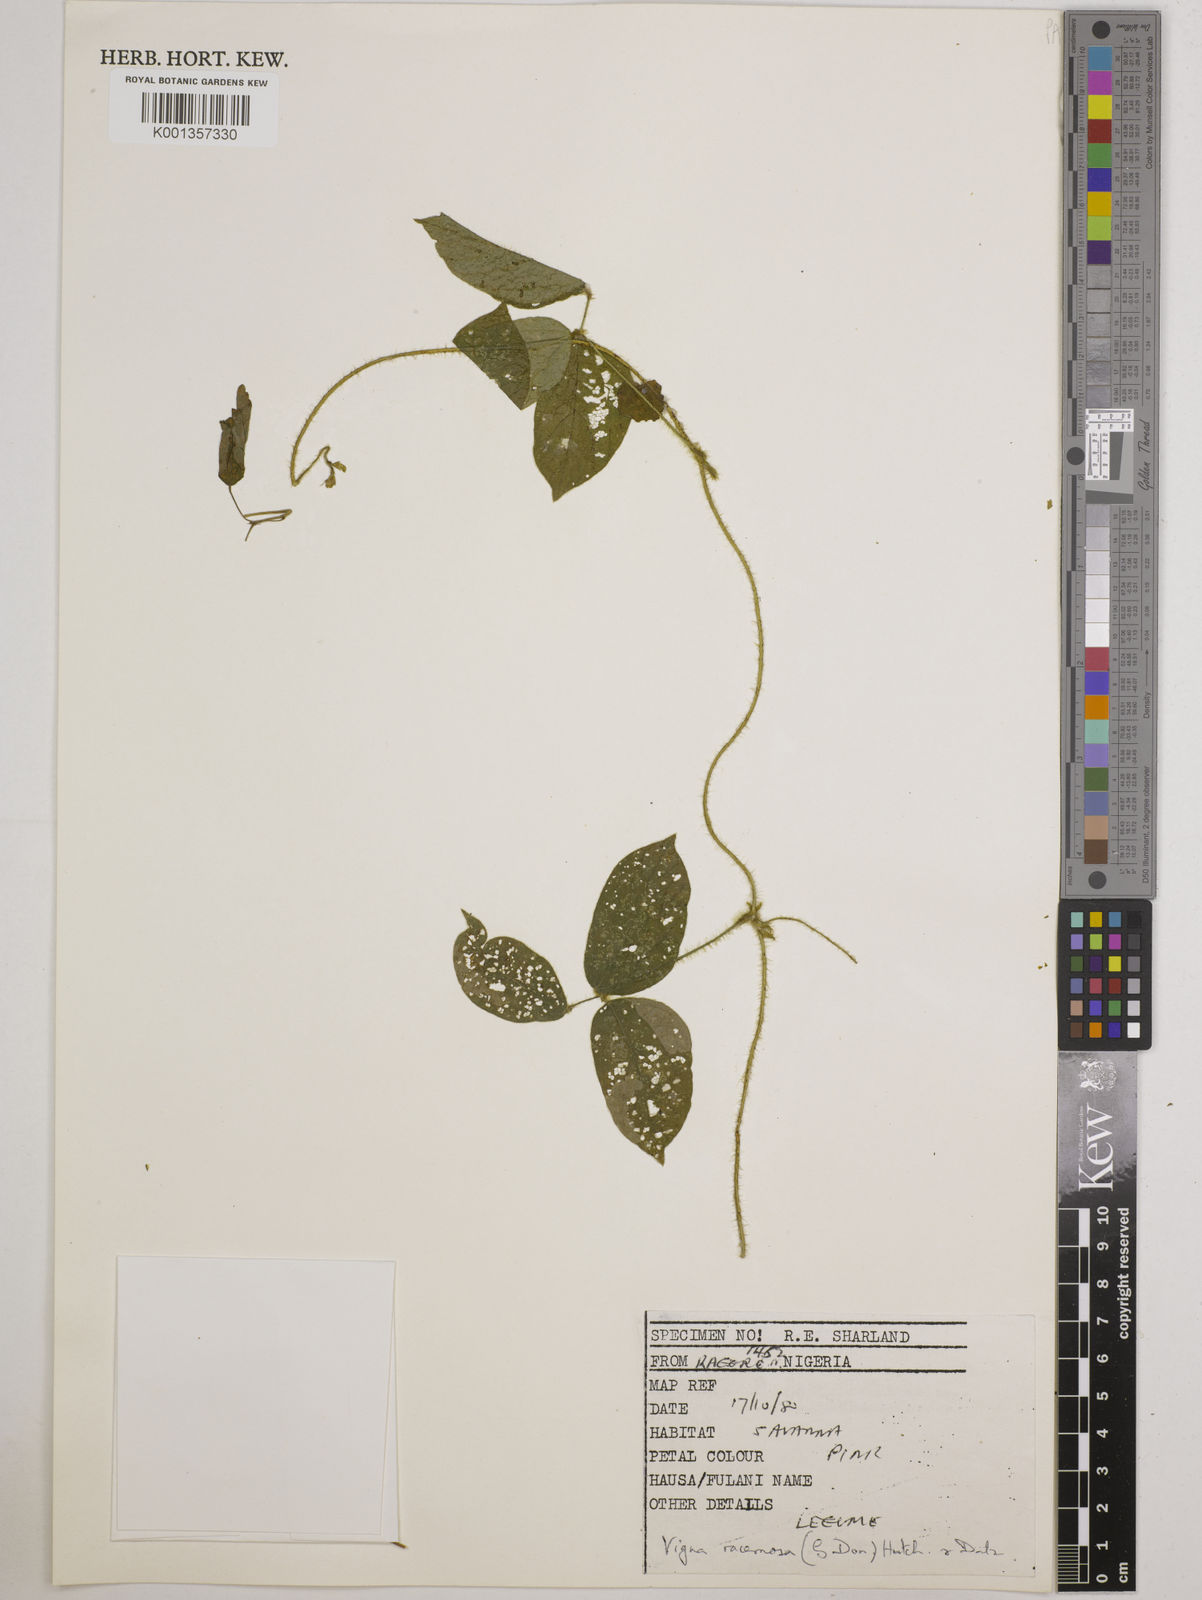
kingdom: Plantae
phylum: Tracheophyta
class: Magnoliopsida
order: Fabales
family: Fabaceae
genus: Vigna
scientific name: Vigna racemosa
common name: Beans not eaten
